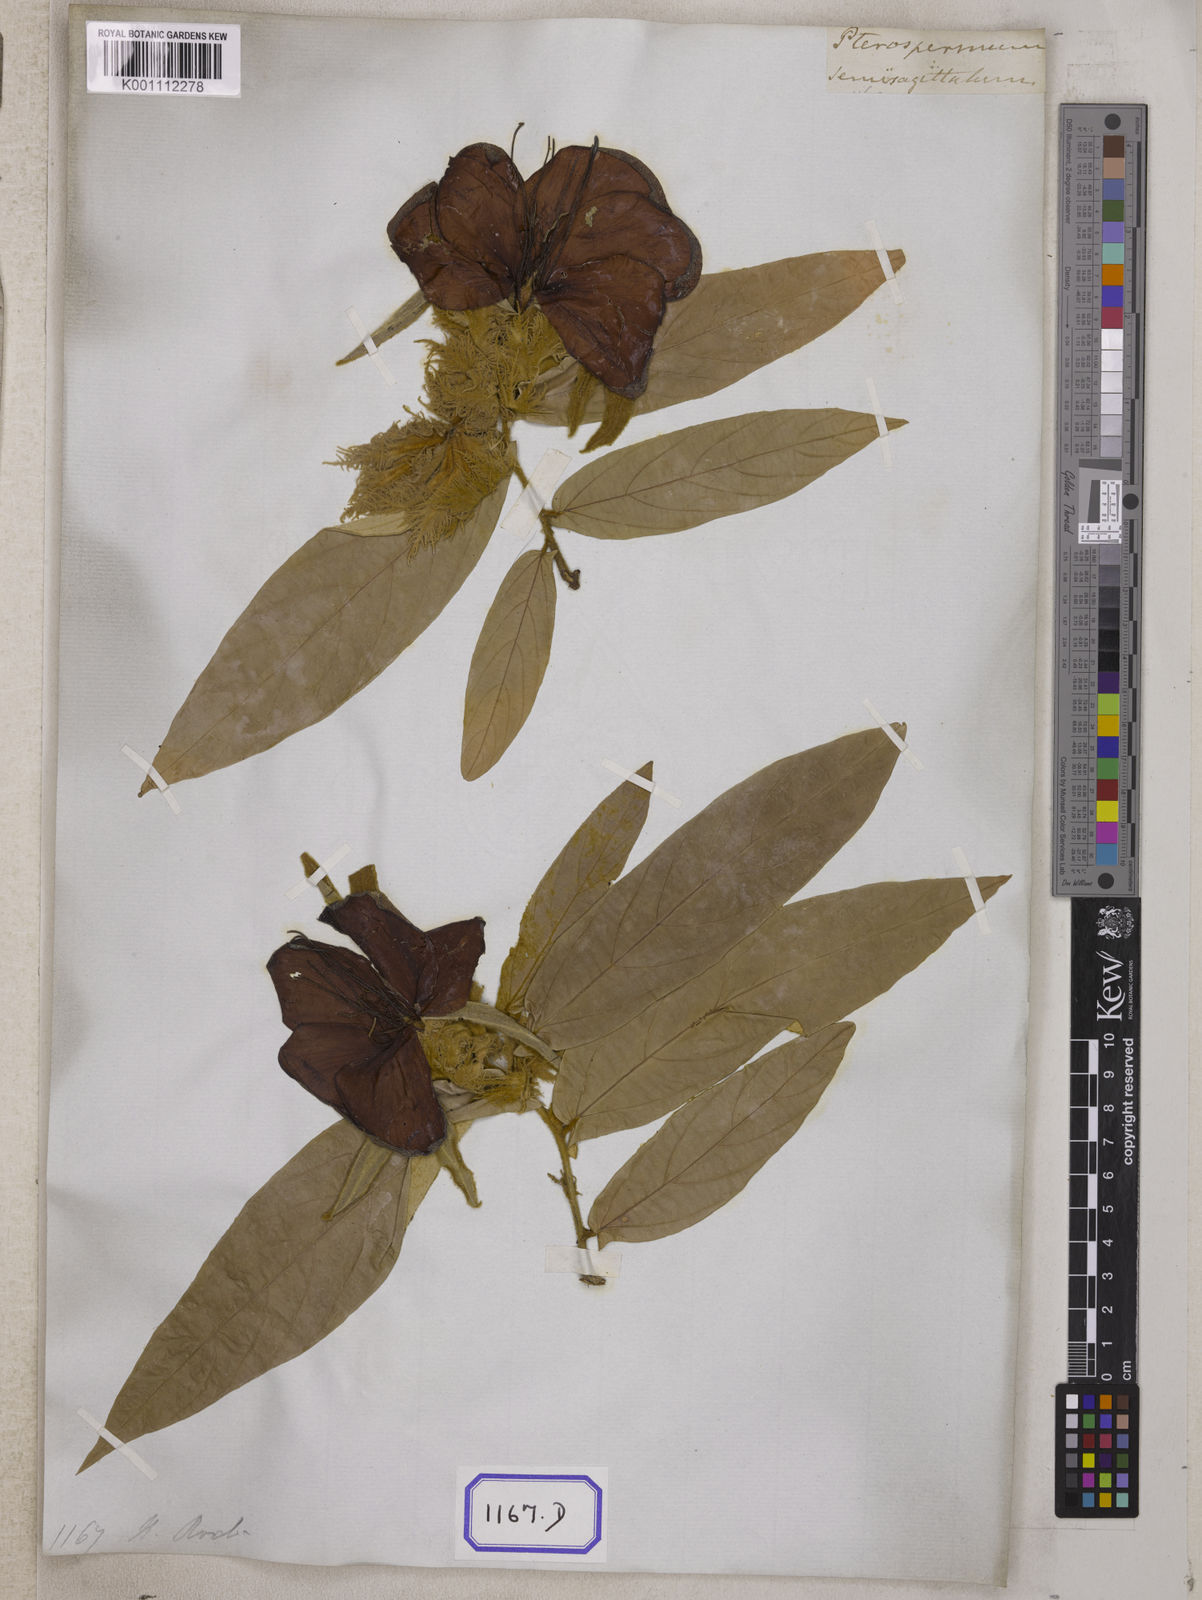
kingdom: Plantae
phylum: Tracheophyta
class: Magnoliopsida
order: Malvales
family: Malvaceae
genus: Pterospermum
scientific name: Pterospermum semisagittatum
